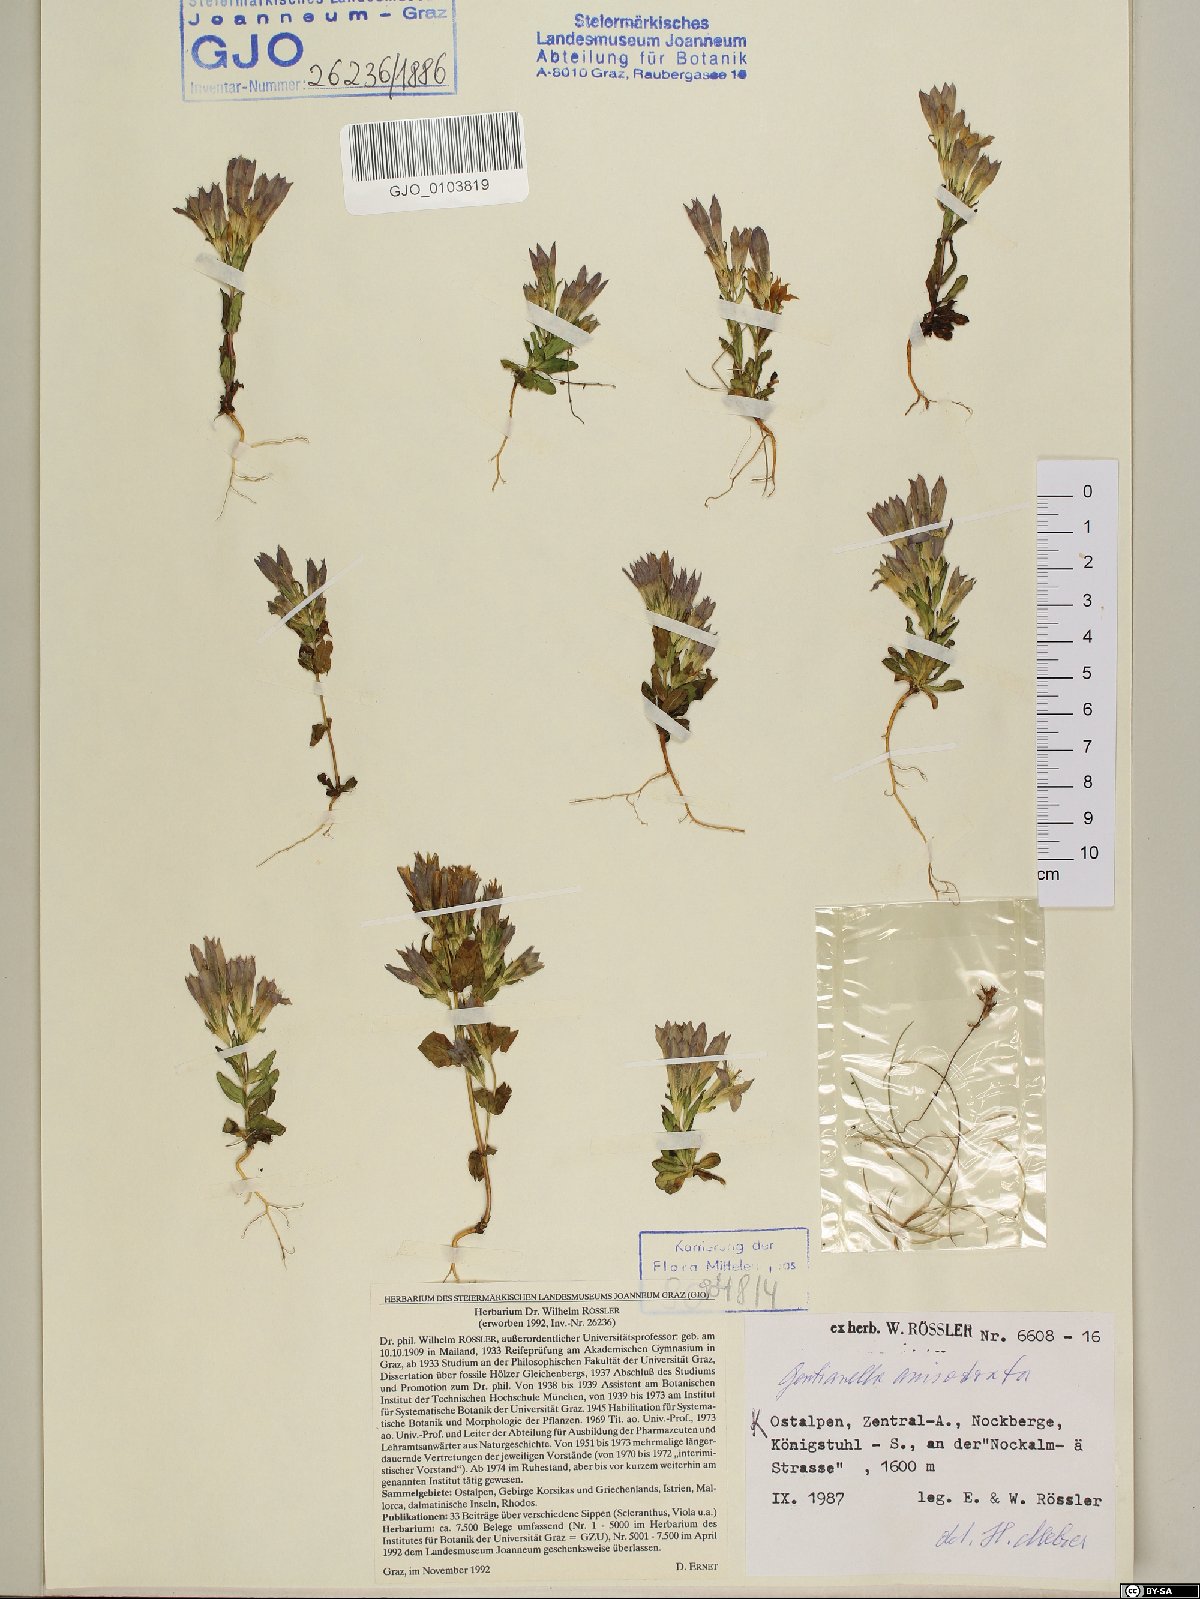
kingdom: Plantae
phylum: Tracheophyta
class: Magnoliopsida
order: Gentianales
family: Gentianaceae
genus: Gentianella
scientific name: Gentianella anisodonta
